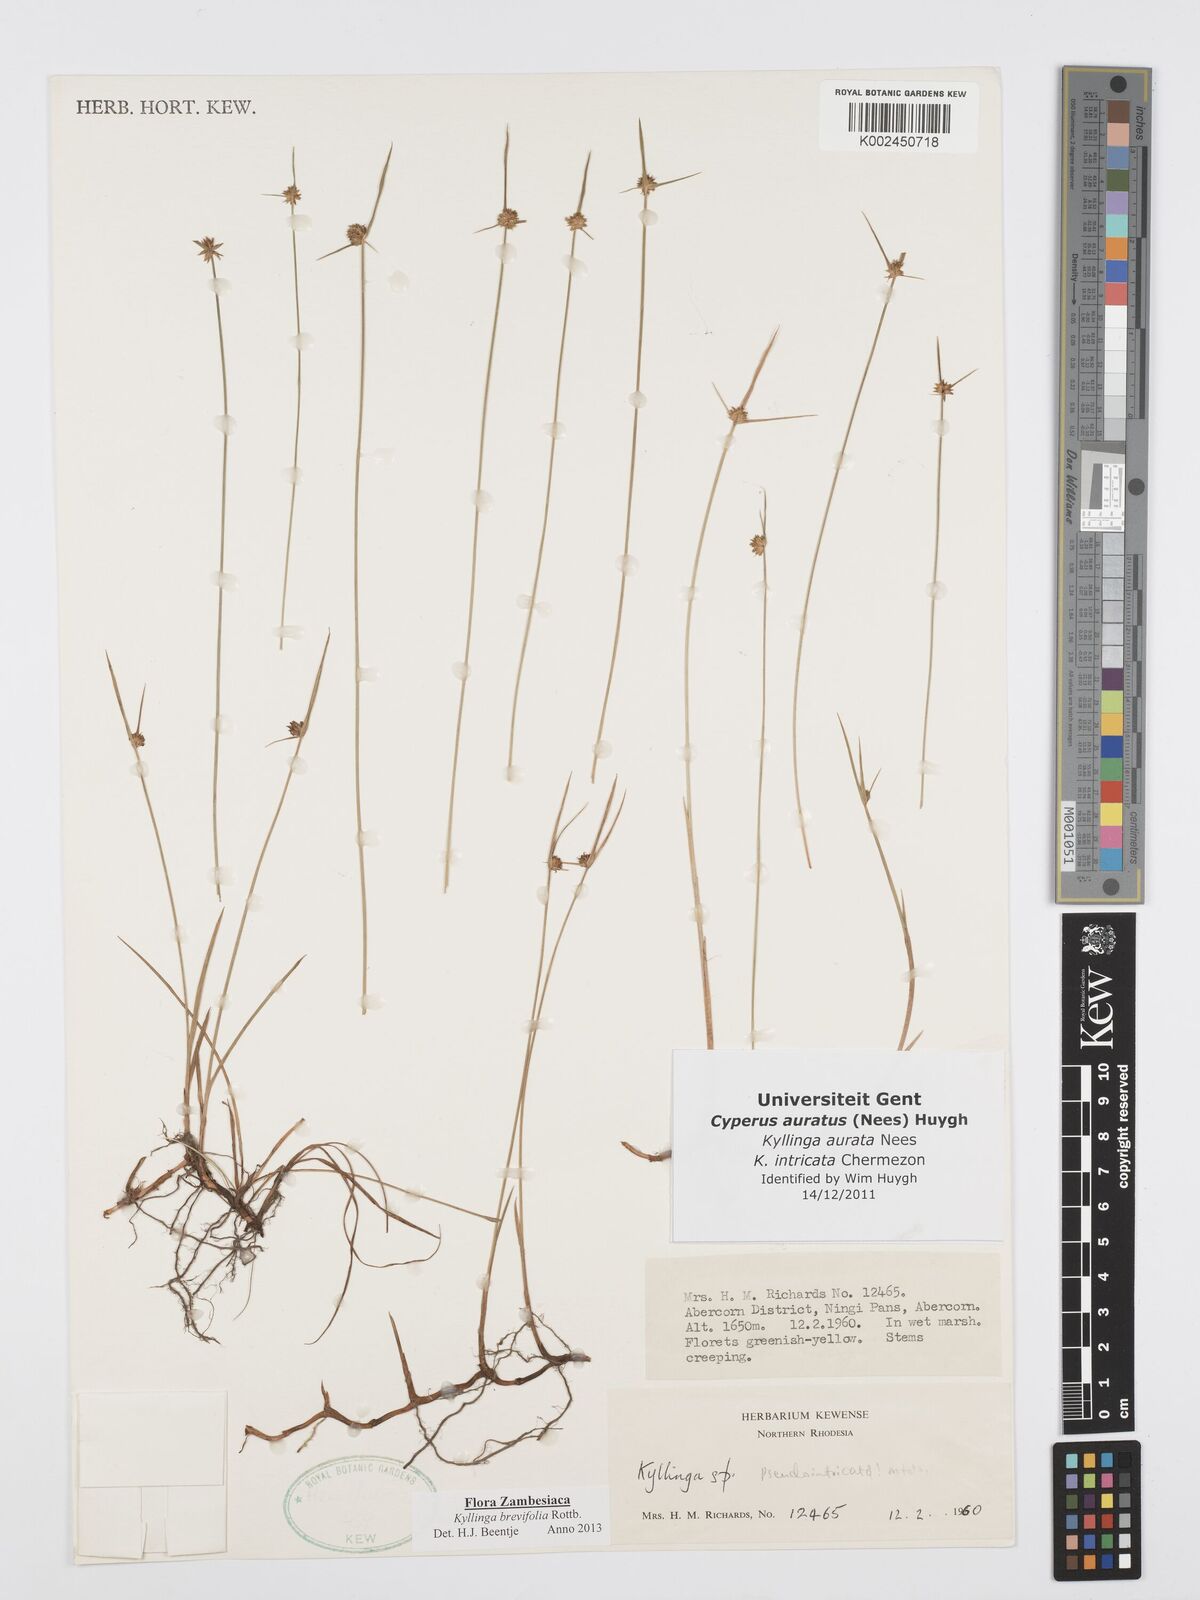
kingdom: Plantae
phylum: Tracheophyta
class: Liliopsida
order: Poales
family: Cyperaceae
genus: Cyperus
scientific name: Cyperus brevifolius
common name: Globe kyllinga
